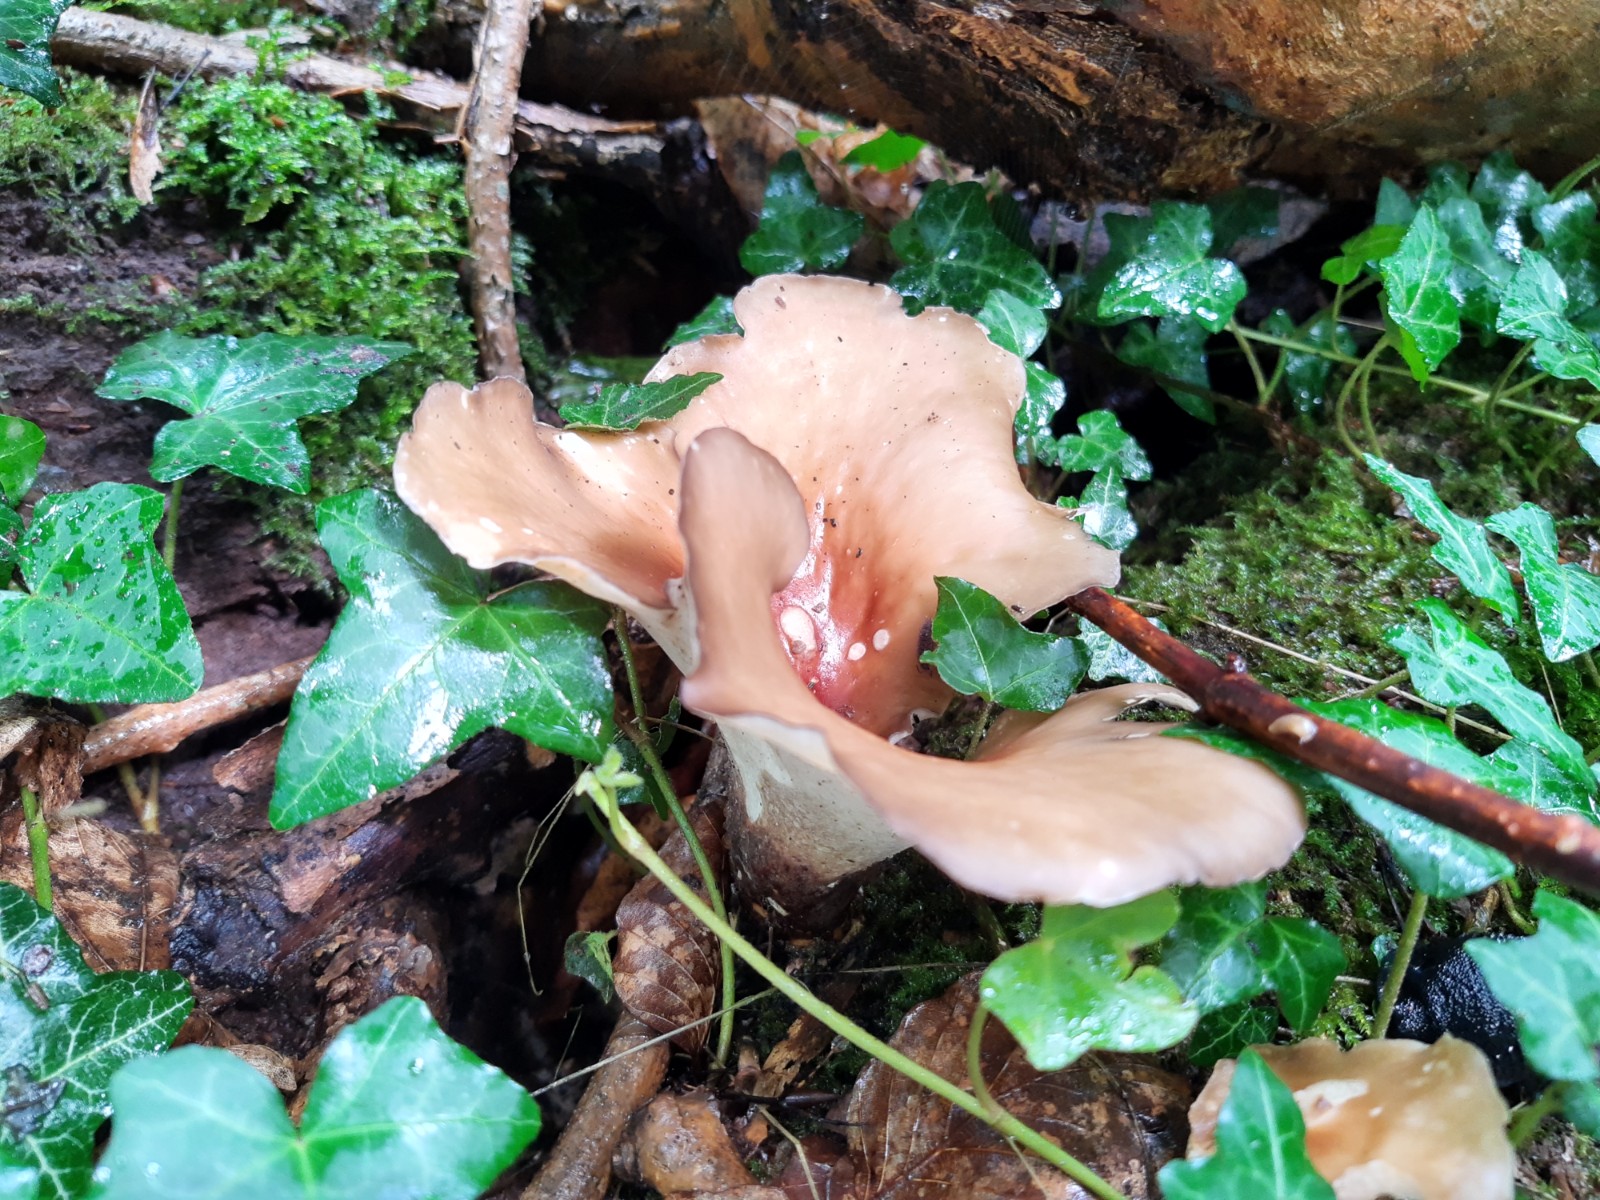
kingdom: Fungi
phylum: Basidiomycota
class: Agaricomycetes
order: Polyporales
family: Polyporaceae
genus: Picipes
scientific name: Picipes melanopus
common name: sortfodet stilkporesvamp
